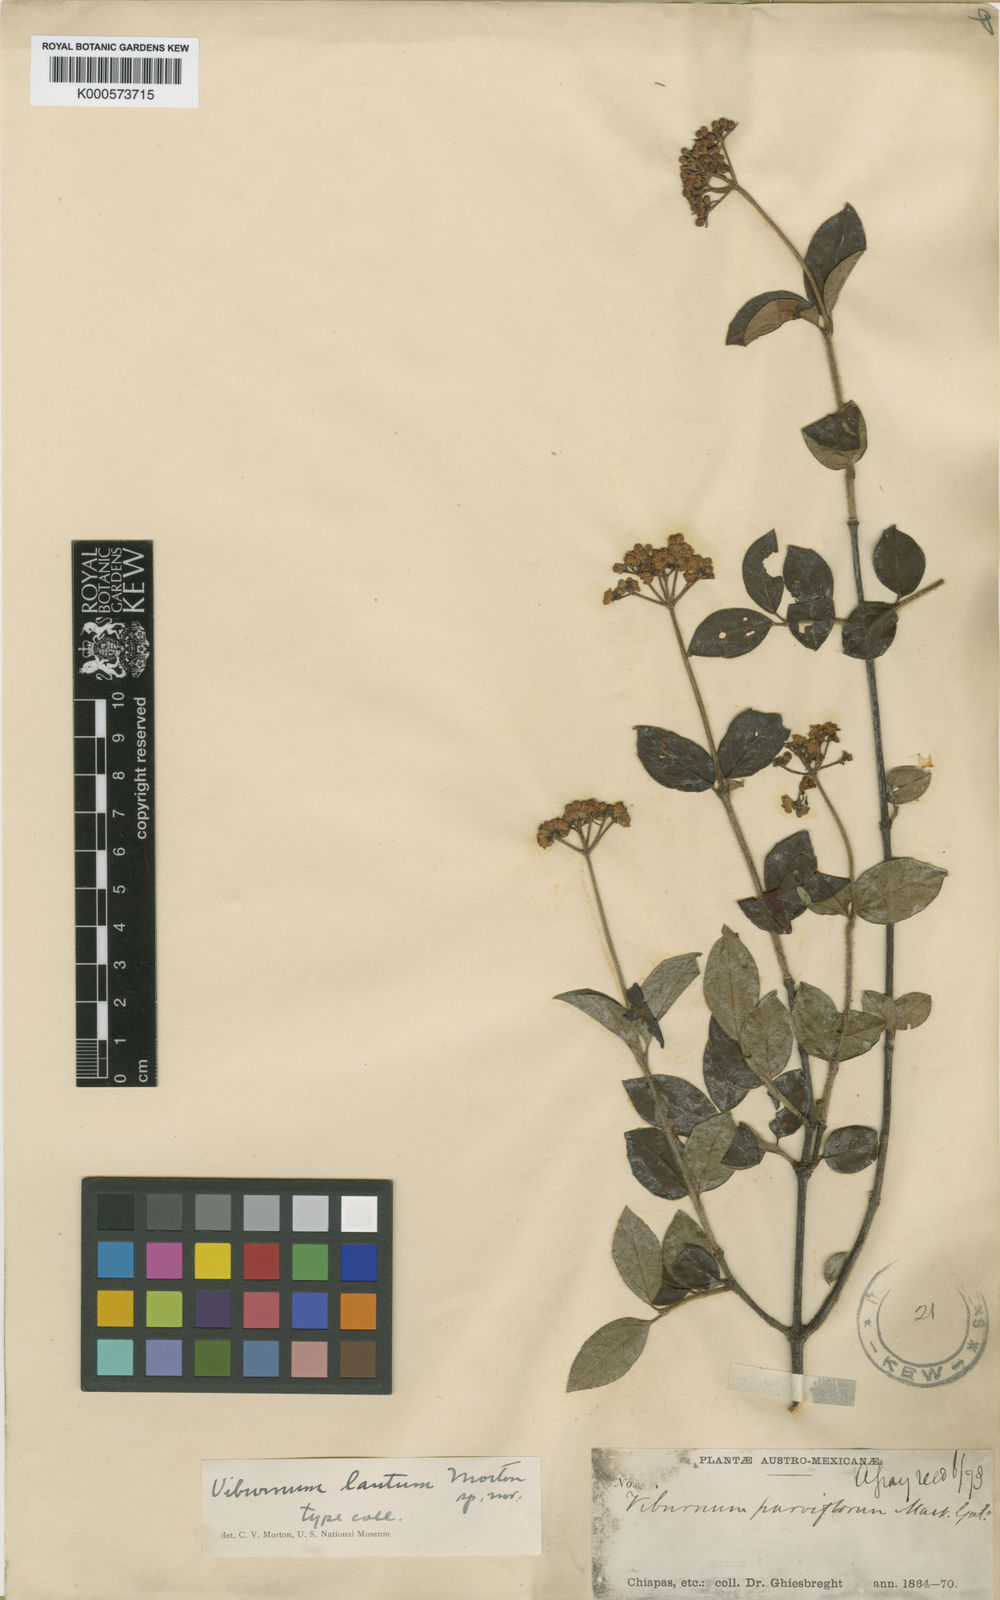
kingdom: Plantae
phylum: Tracheophyta
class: Magnoliopsida
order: Dipsacales
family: Viburnaceae
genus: Viburnum
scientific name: Viburnum lautum
